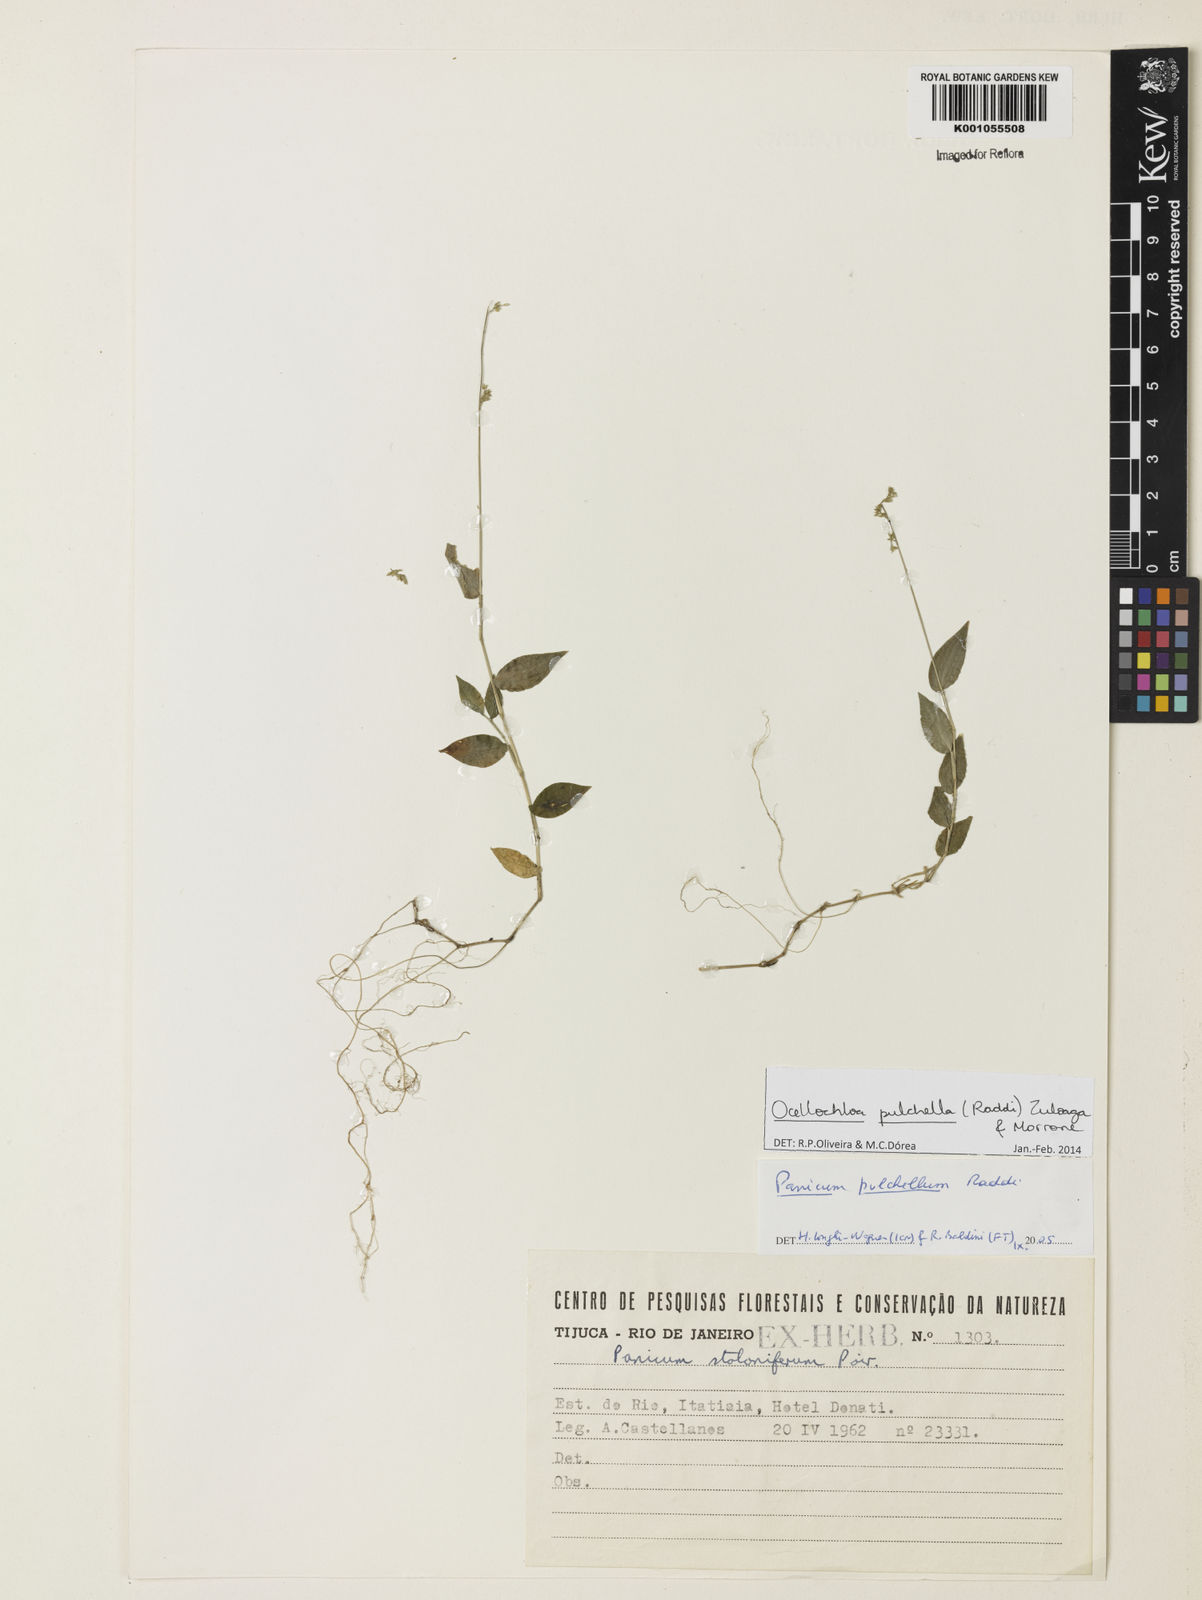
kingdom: Plantae
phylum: Tracheophyta
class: Liliopsida
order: Poales
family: Poaceae
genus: Ocellochloa
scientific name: Ocellochloa pulchella
